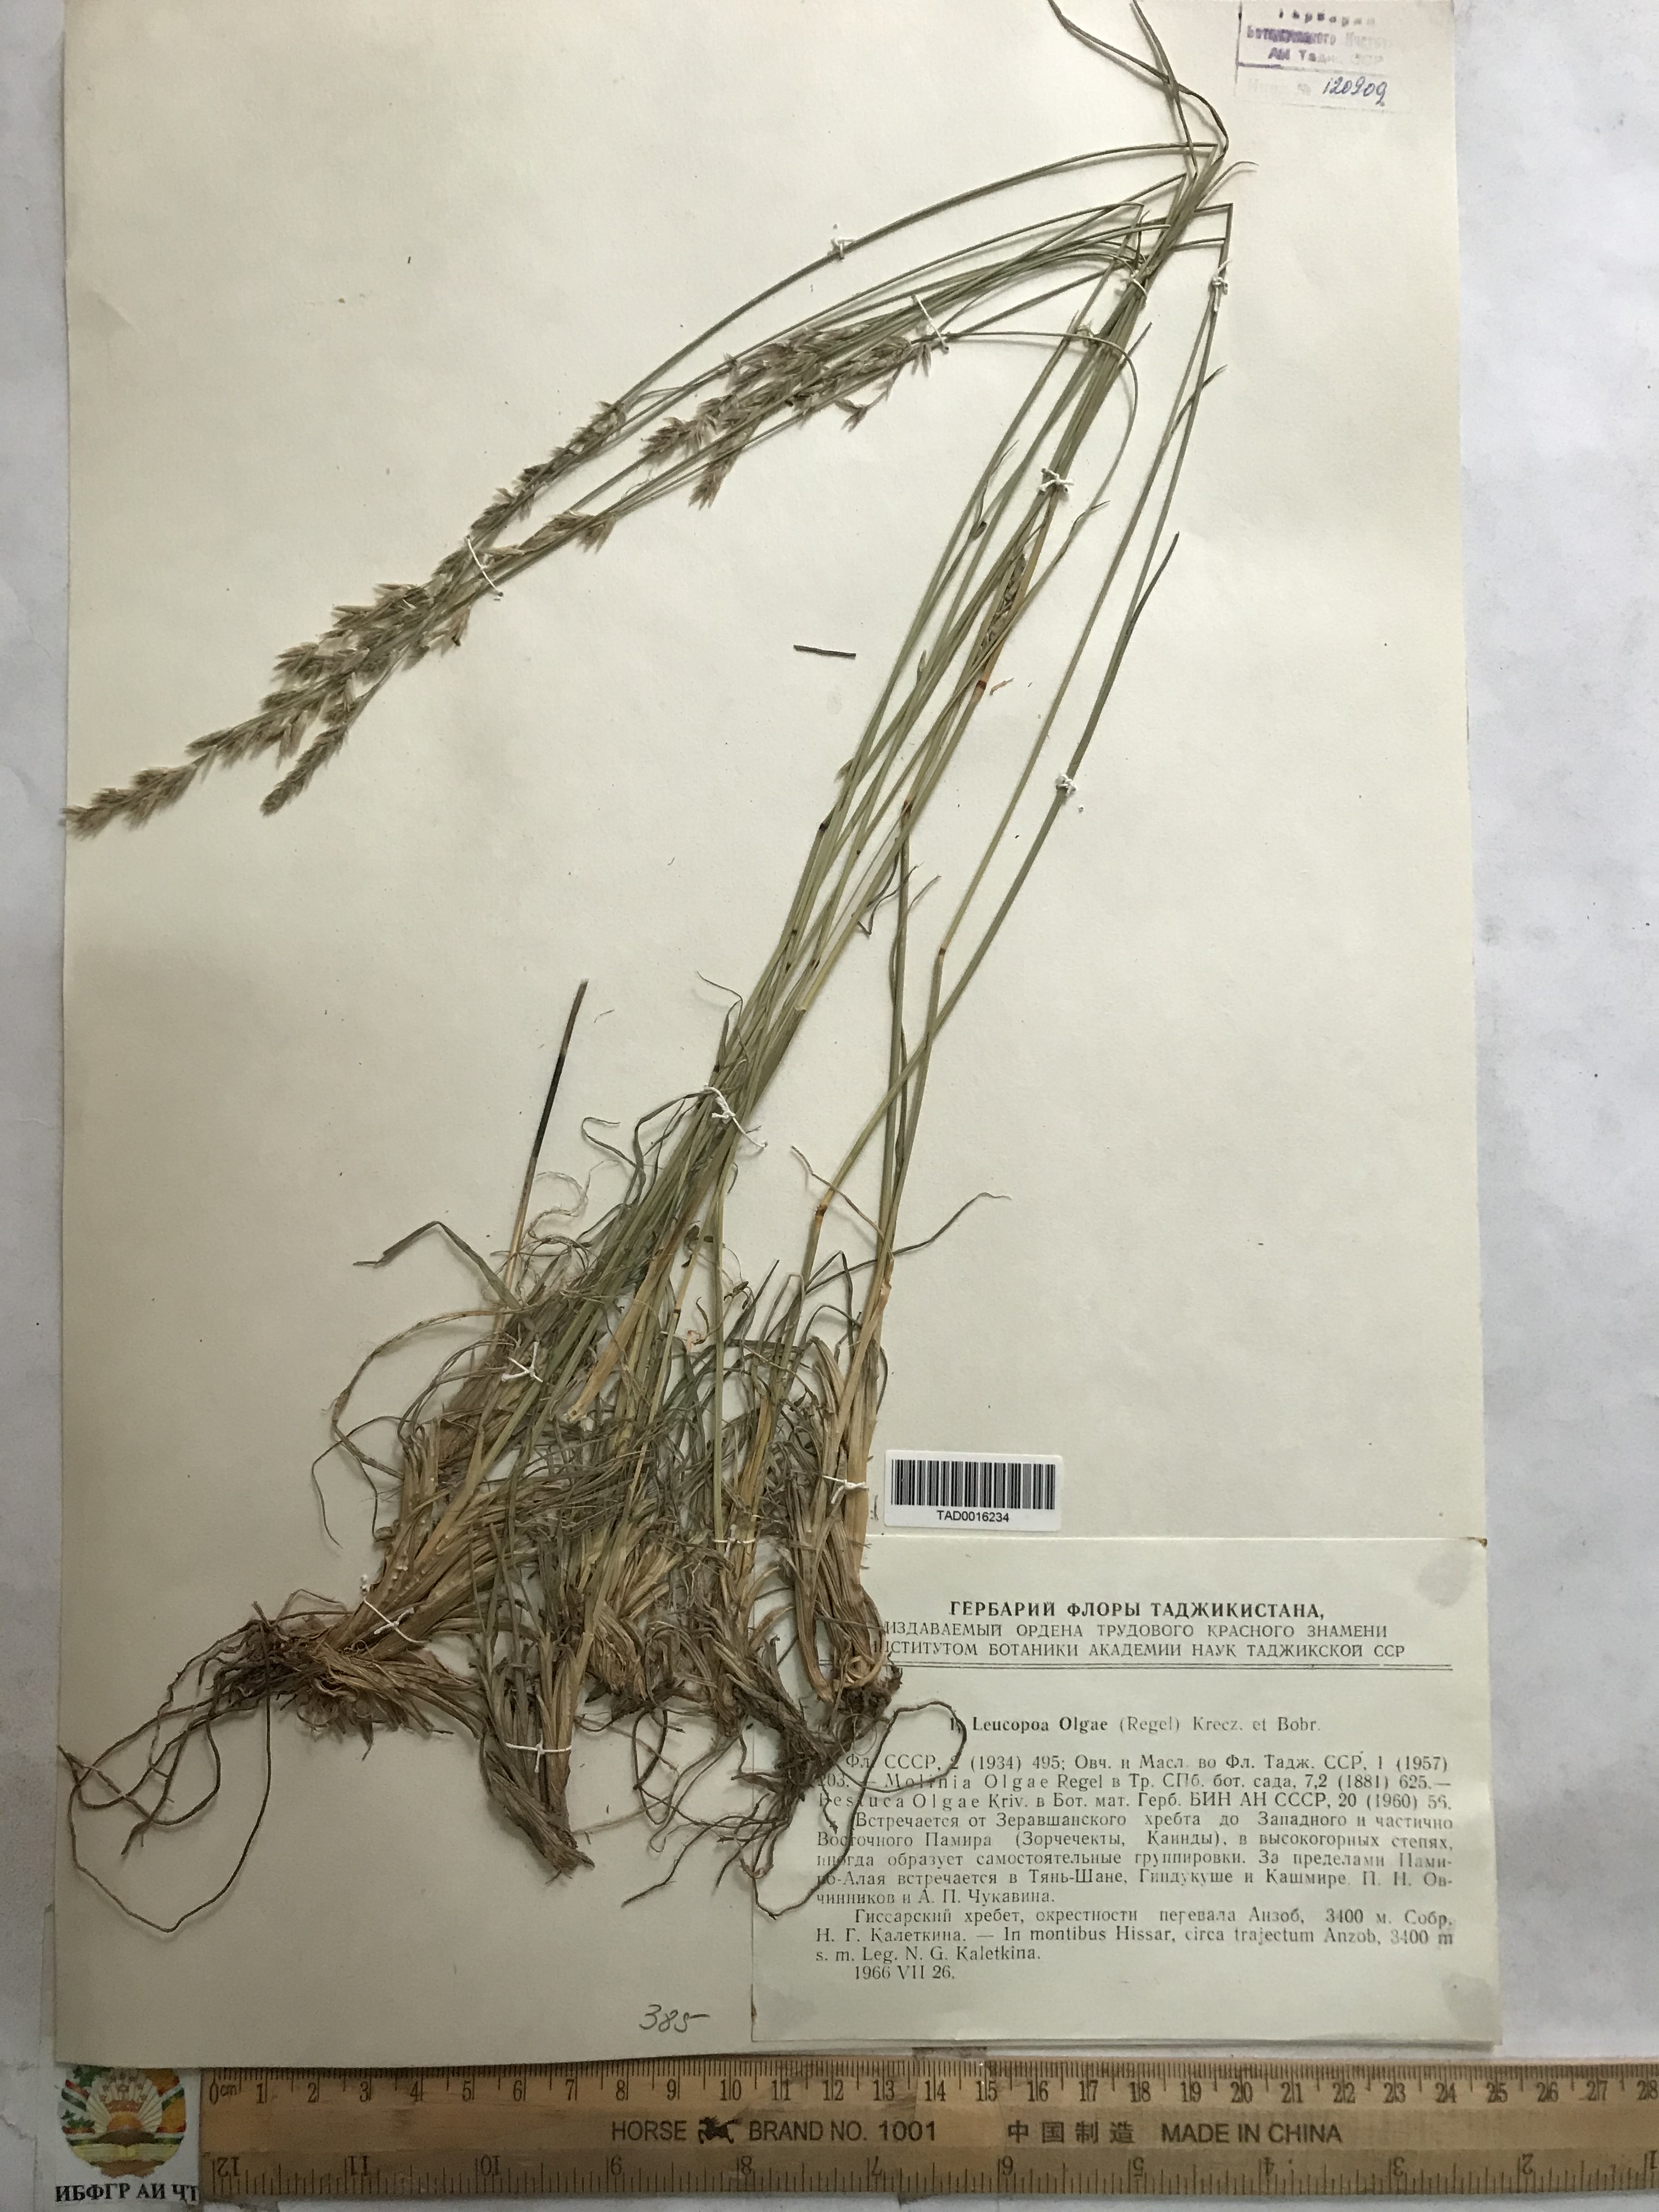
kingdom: Plantae
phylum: Tracheophyta
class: Liliopsida
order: Poales
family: Poaceae
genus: Festuca
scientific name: Festuca
